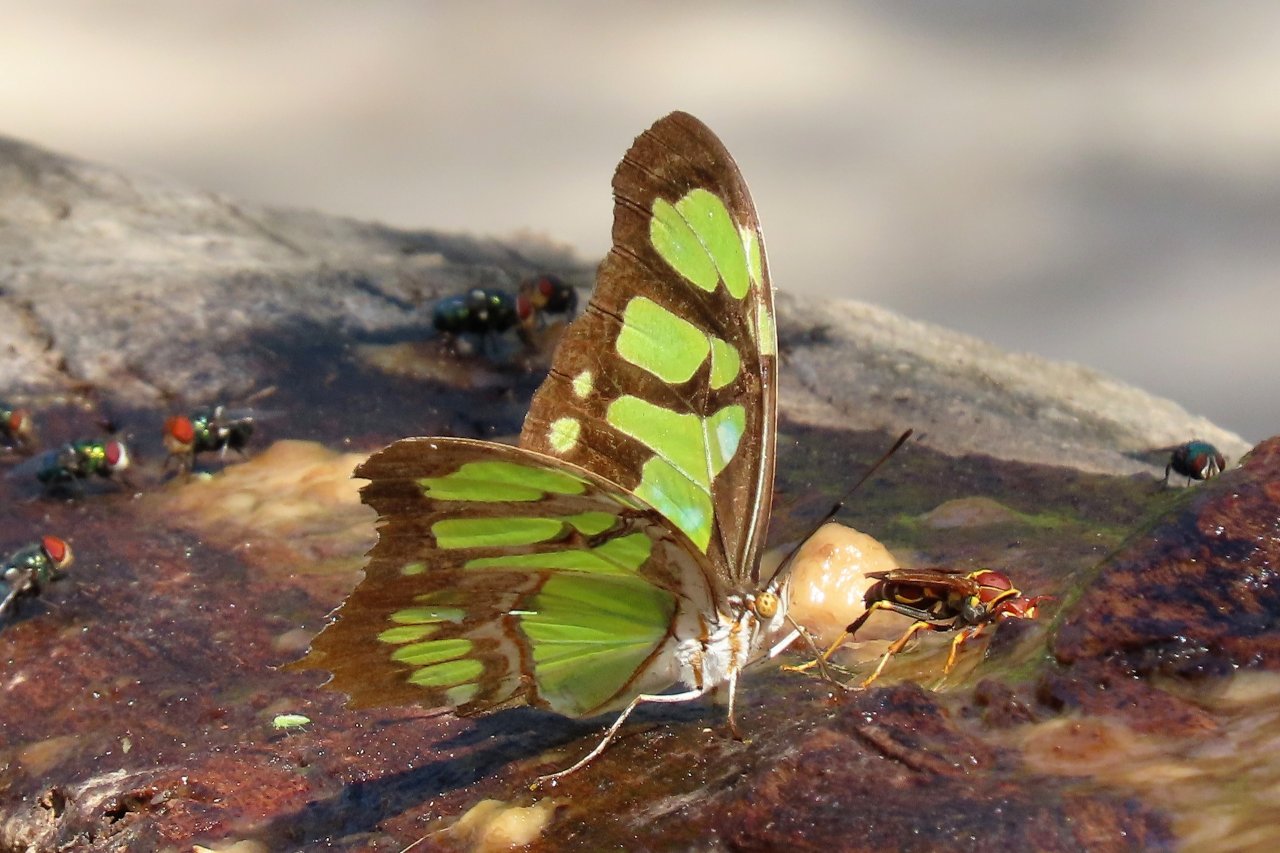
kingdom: Animalia
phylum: Arthropoda
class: Insecta
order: Lepidoptera
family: Nymphalidae
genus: Siproeta
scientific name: Siproeta stelenes
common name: Malachite
